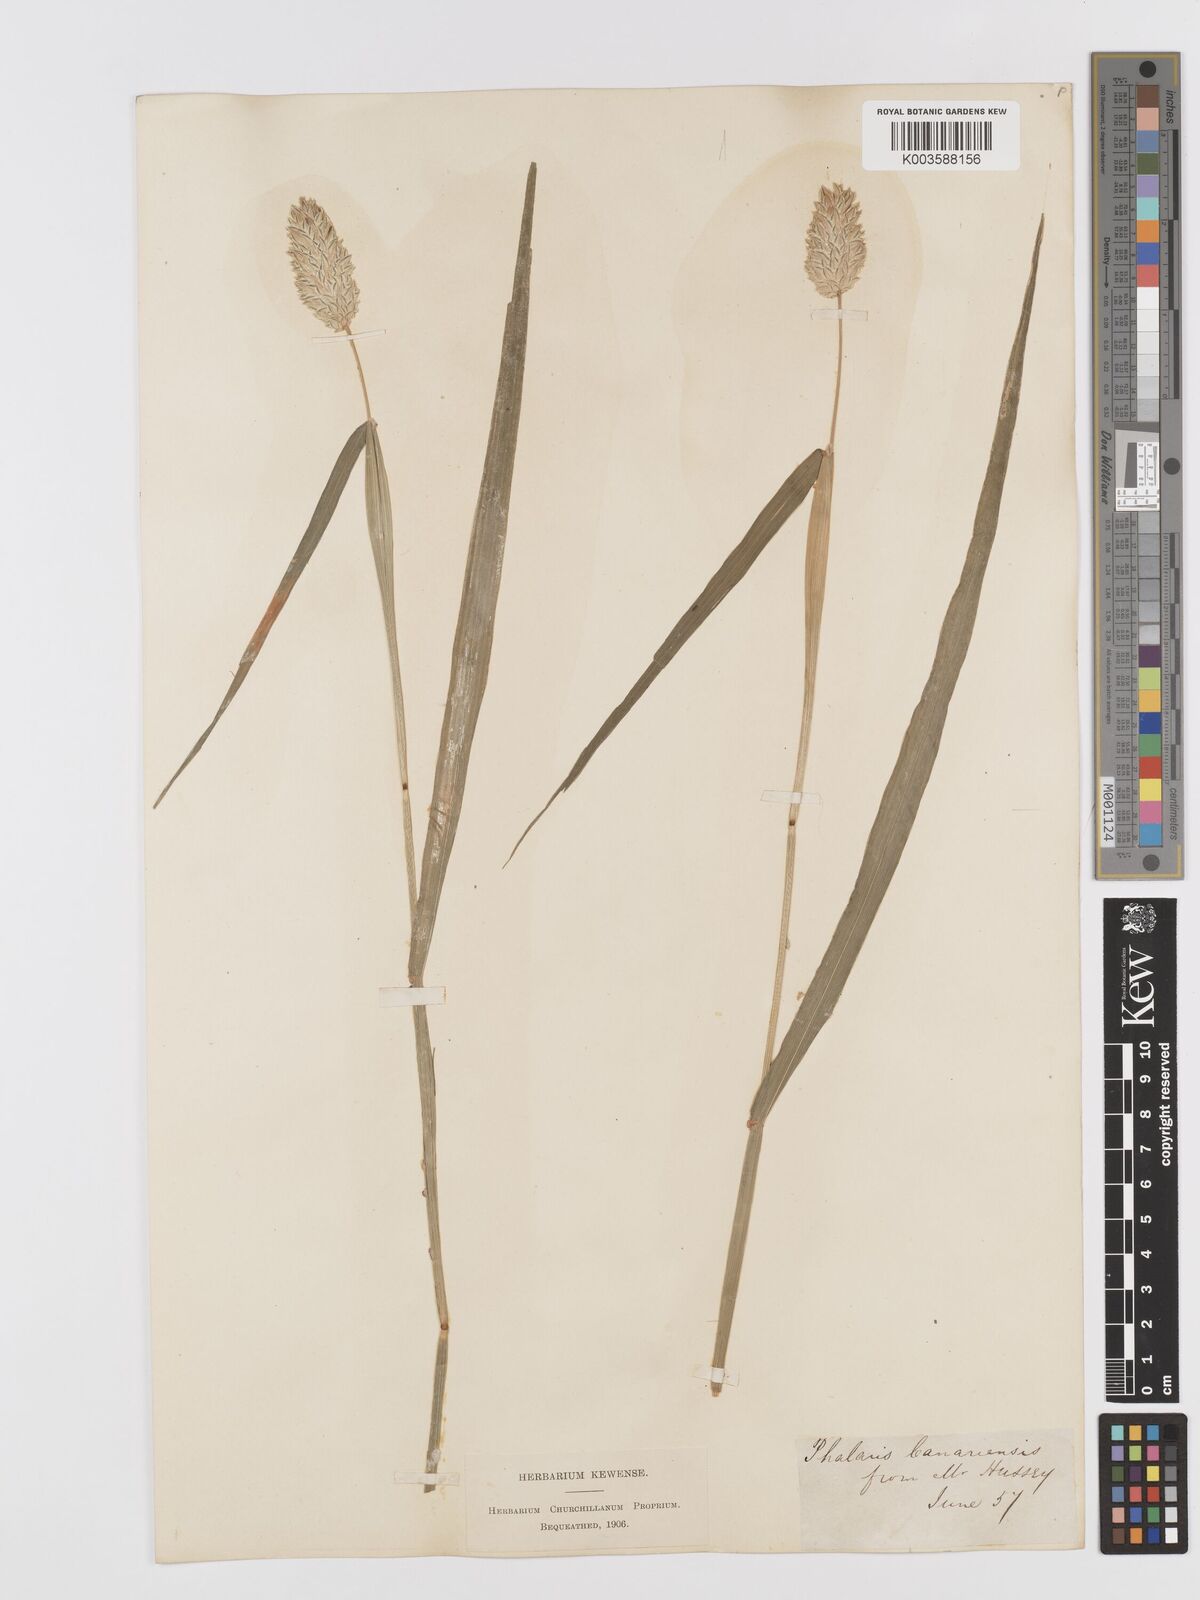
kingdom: Plantae
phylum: Tracheophyta
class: Liliopsida
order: Poales
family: Poaceae
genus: Phalaris
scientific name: Phalaris canariensis
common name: Annual canarygrass
